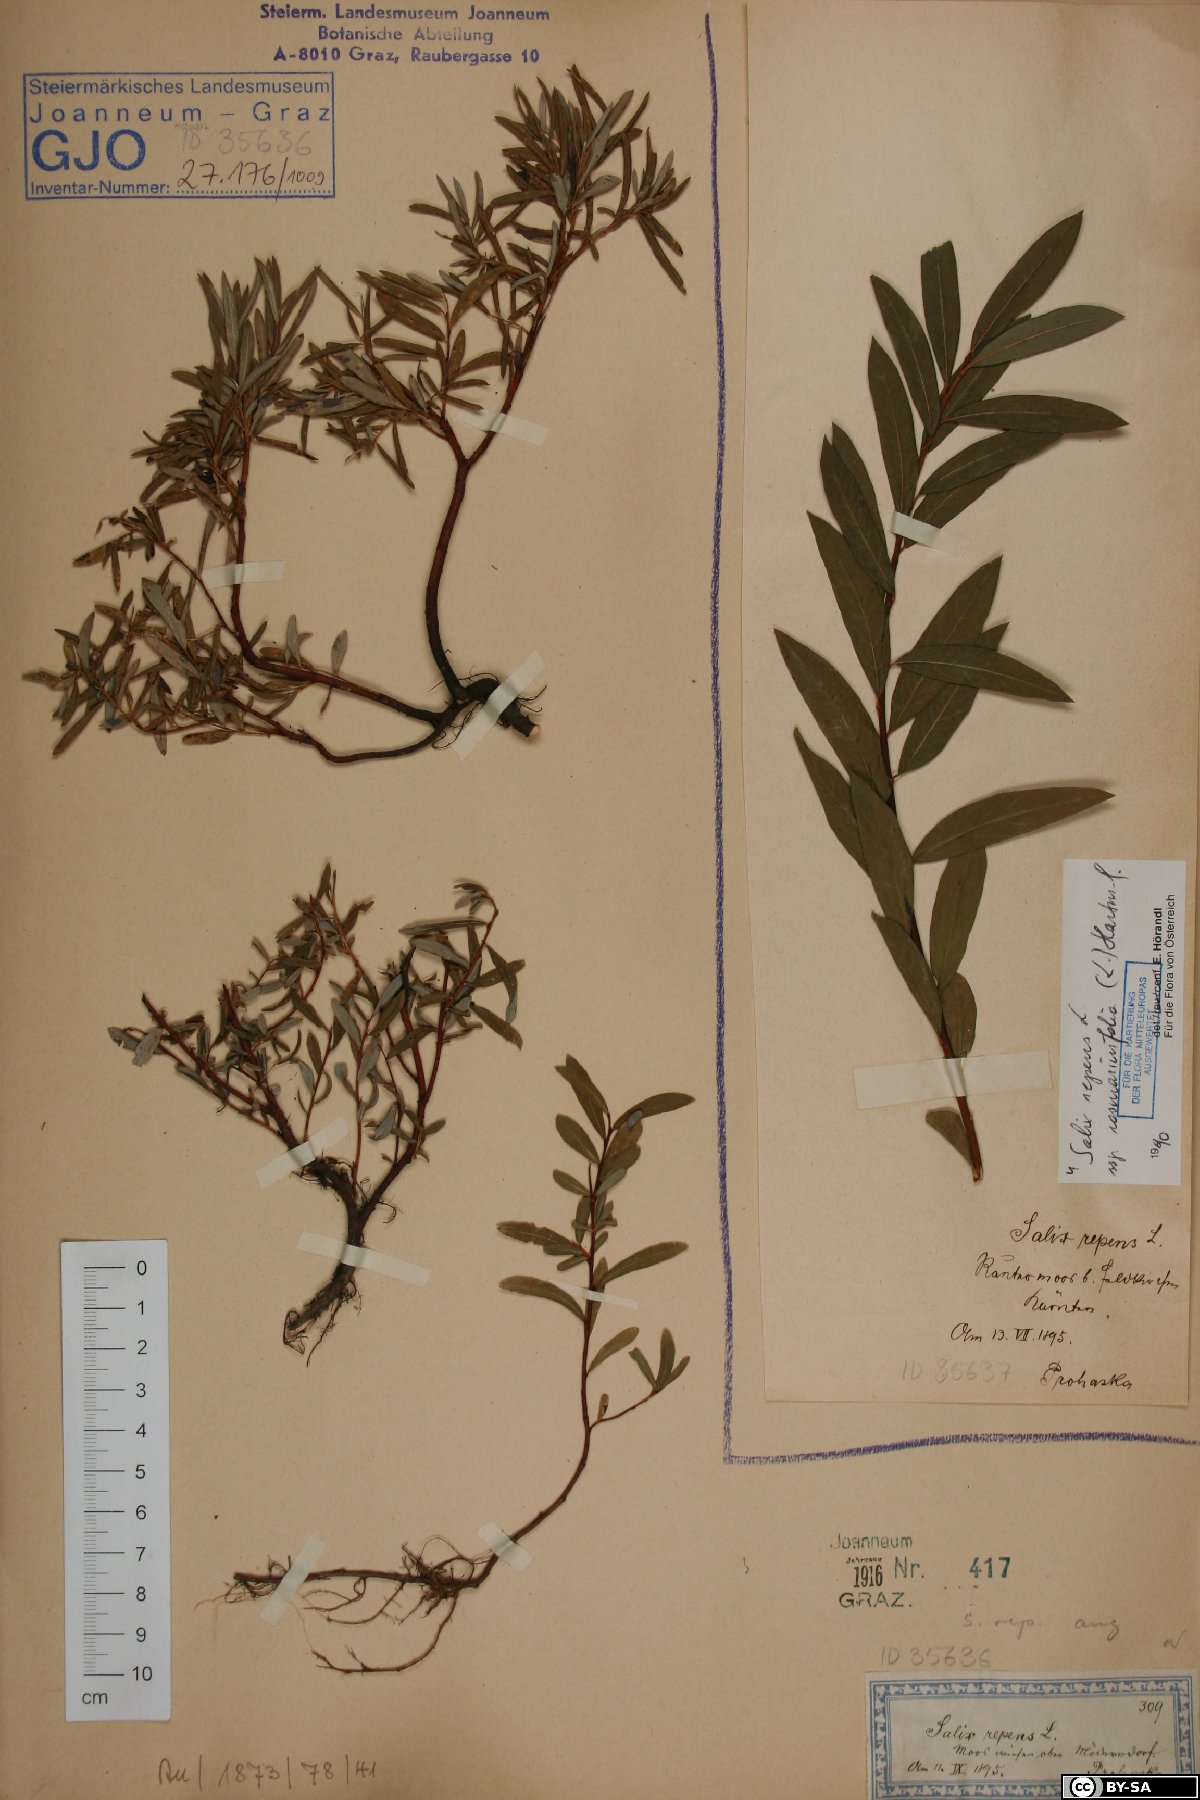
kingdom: Plantae
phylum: Tracheophyta
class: Magnoliopsida
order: Malpighiales
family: Salicaceae
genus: Salix
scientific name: Salix rosmarinifolia
